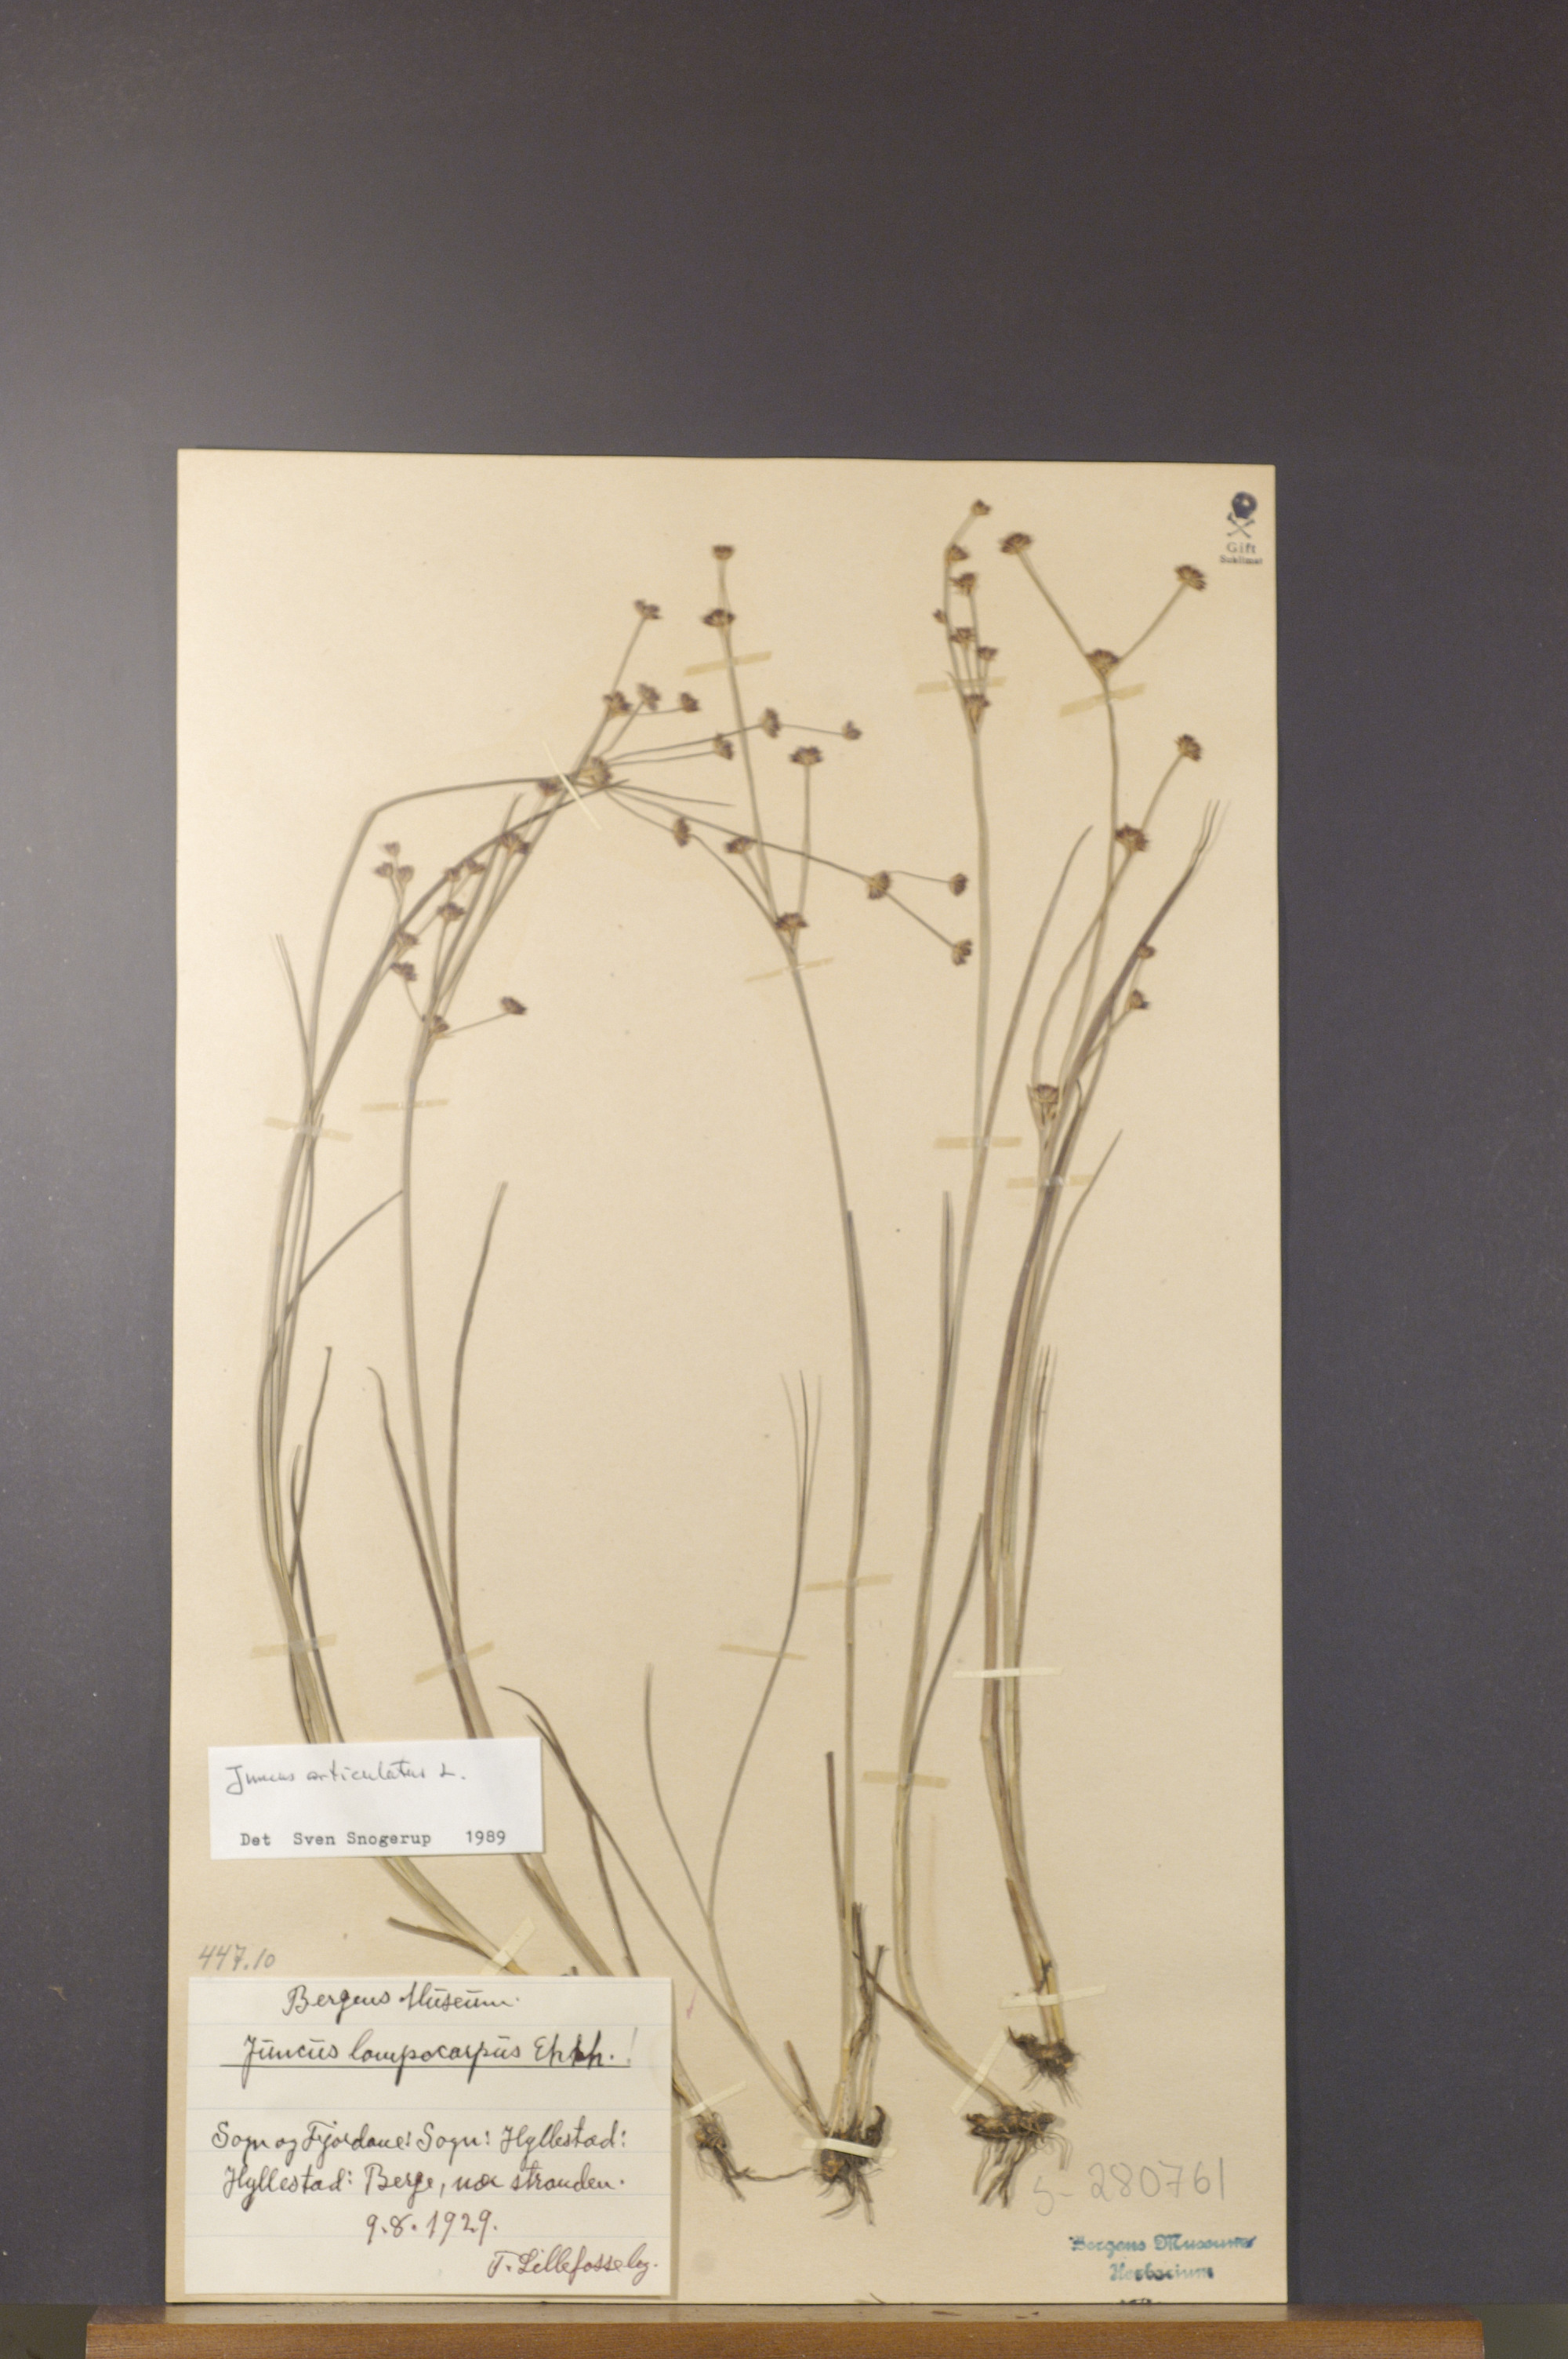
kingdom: Plantae
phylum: Tracheophyta
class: Liliopsida
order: Poales
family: Juncaceae
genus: Juncus
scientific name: Juncus articulatus
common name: Jointed rush
